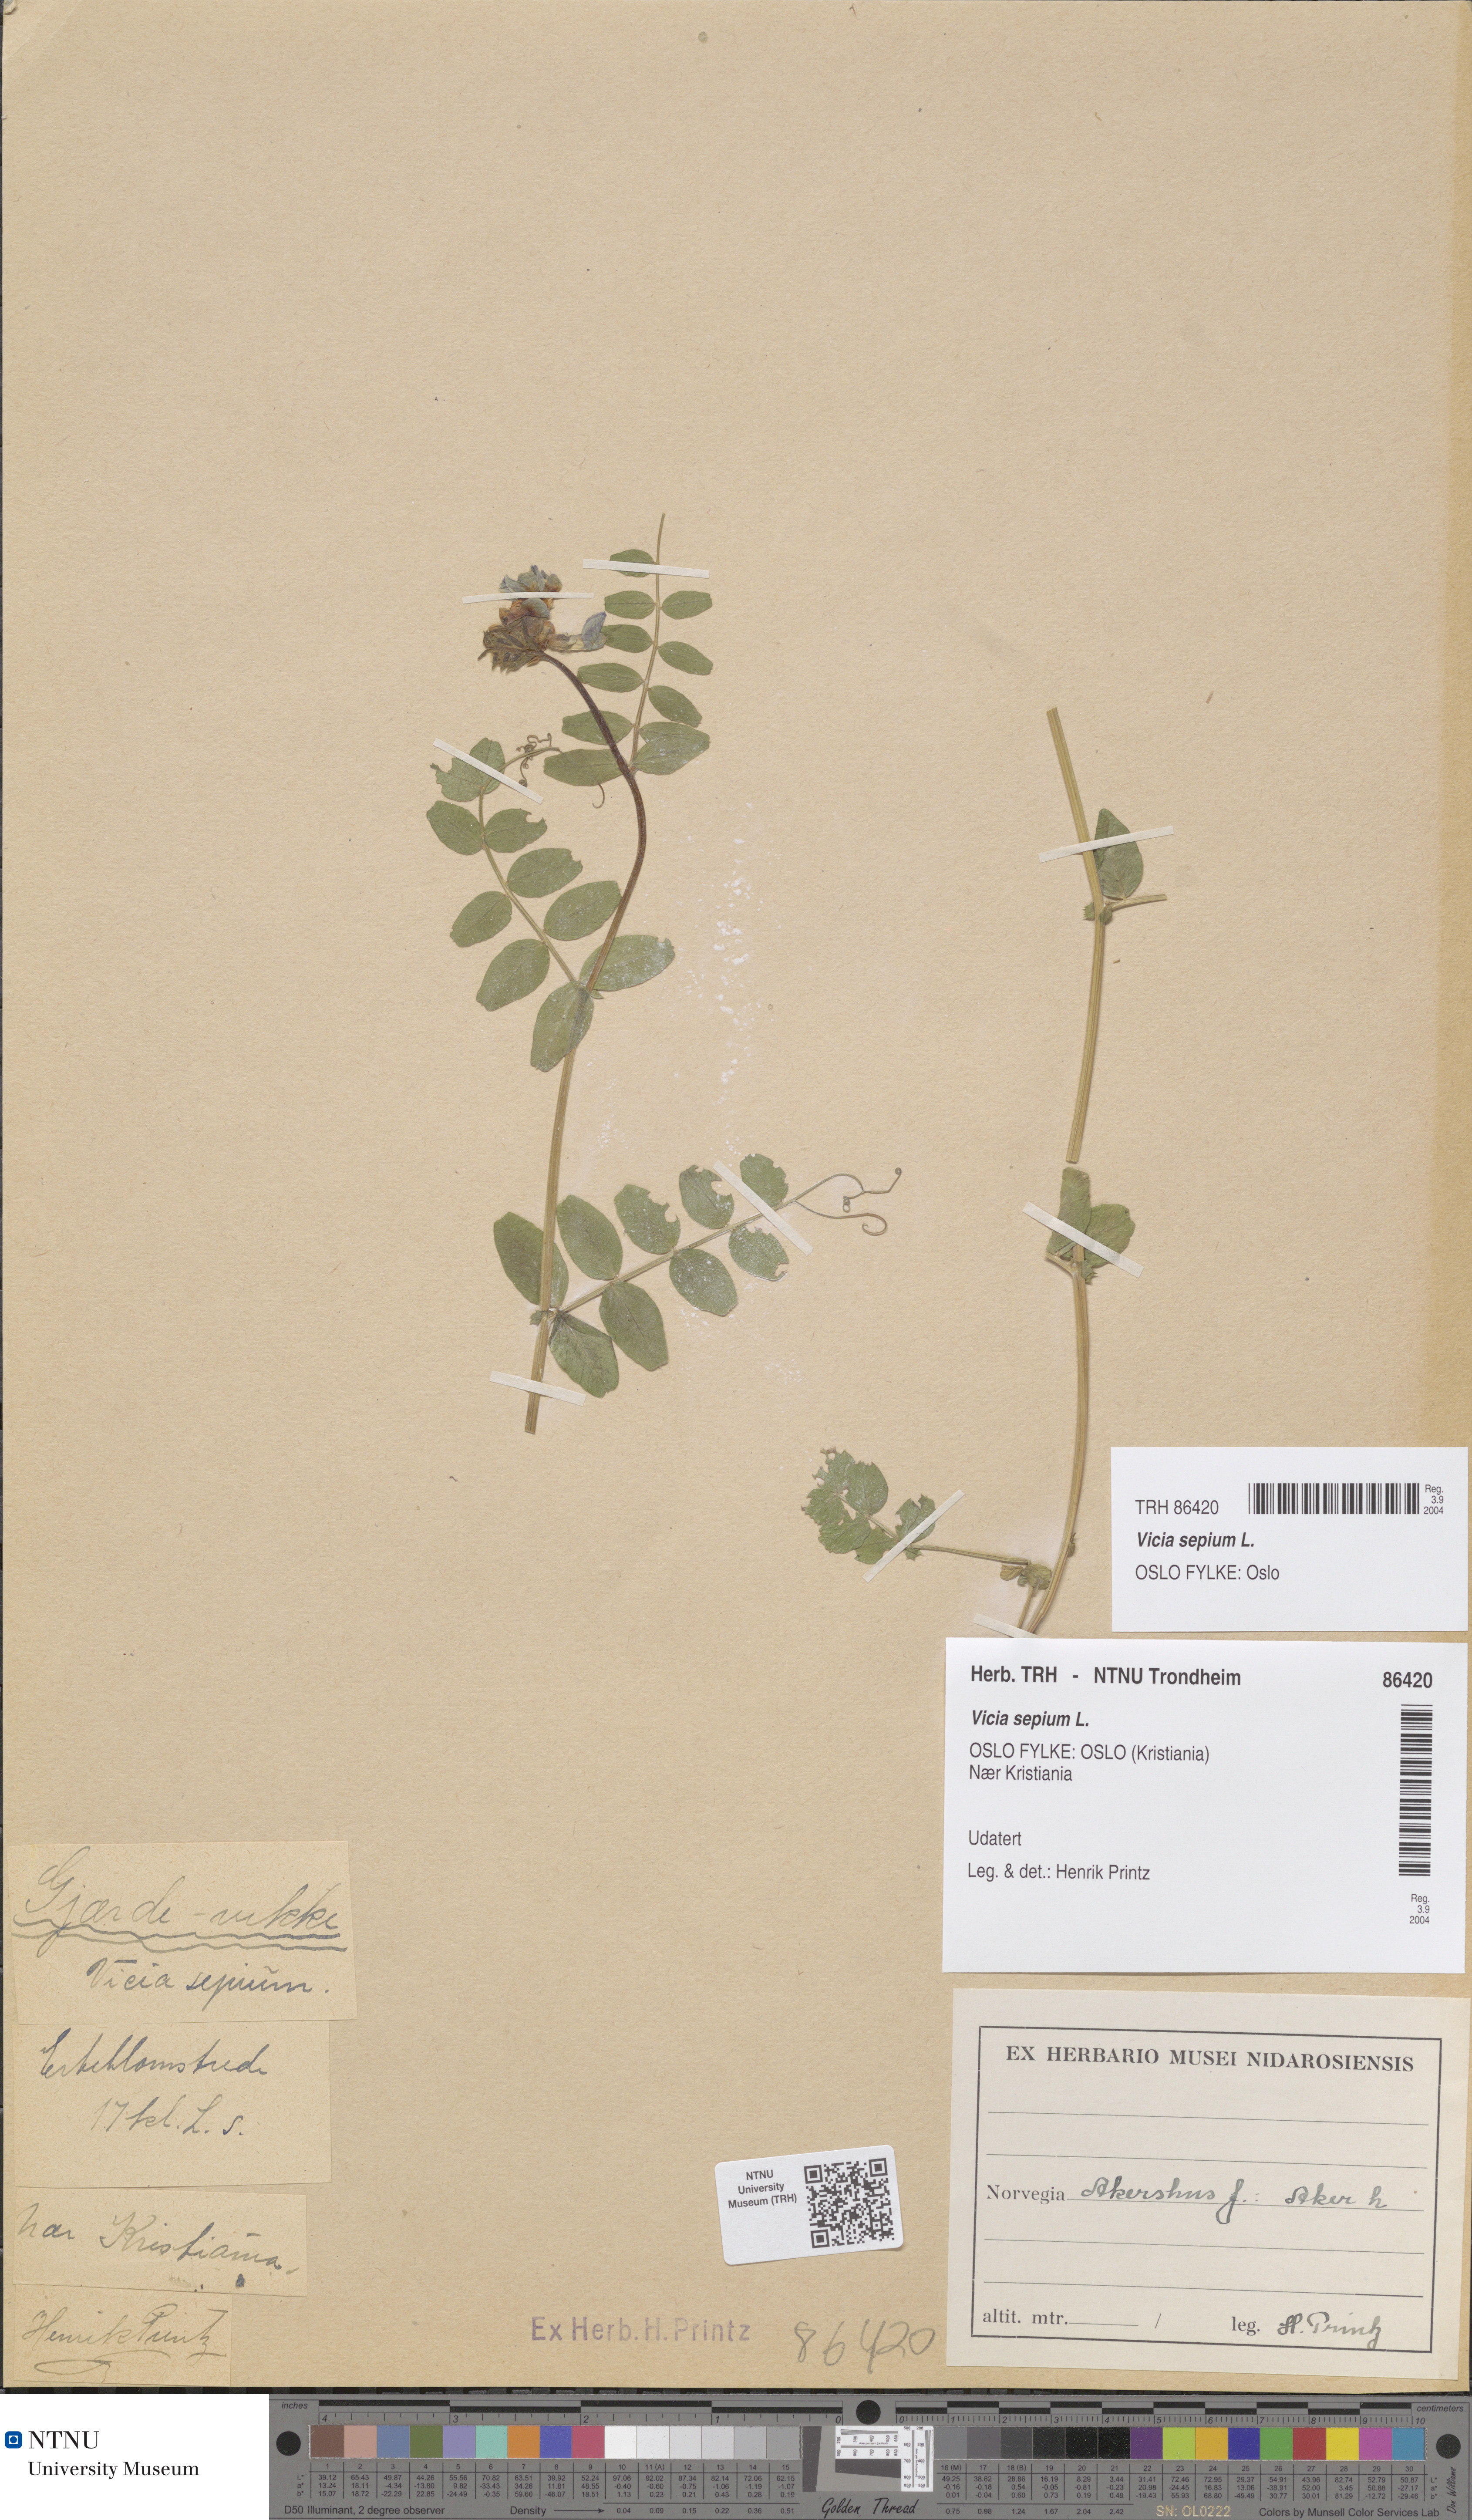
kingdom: Plantae
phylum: Tracheophyta
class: Magnoliopsida
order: Fabales
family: Fabaceae
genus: Vicia
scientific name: Vicia sepium
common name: Bush vetch
